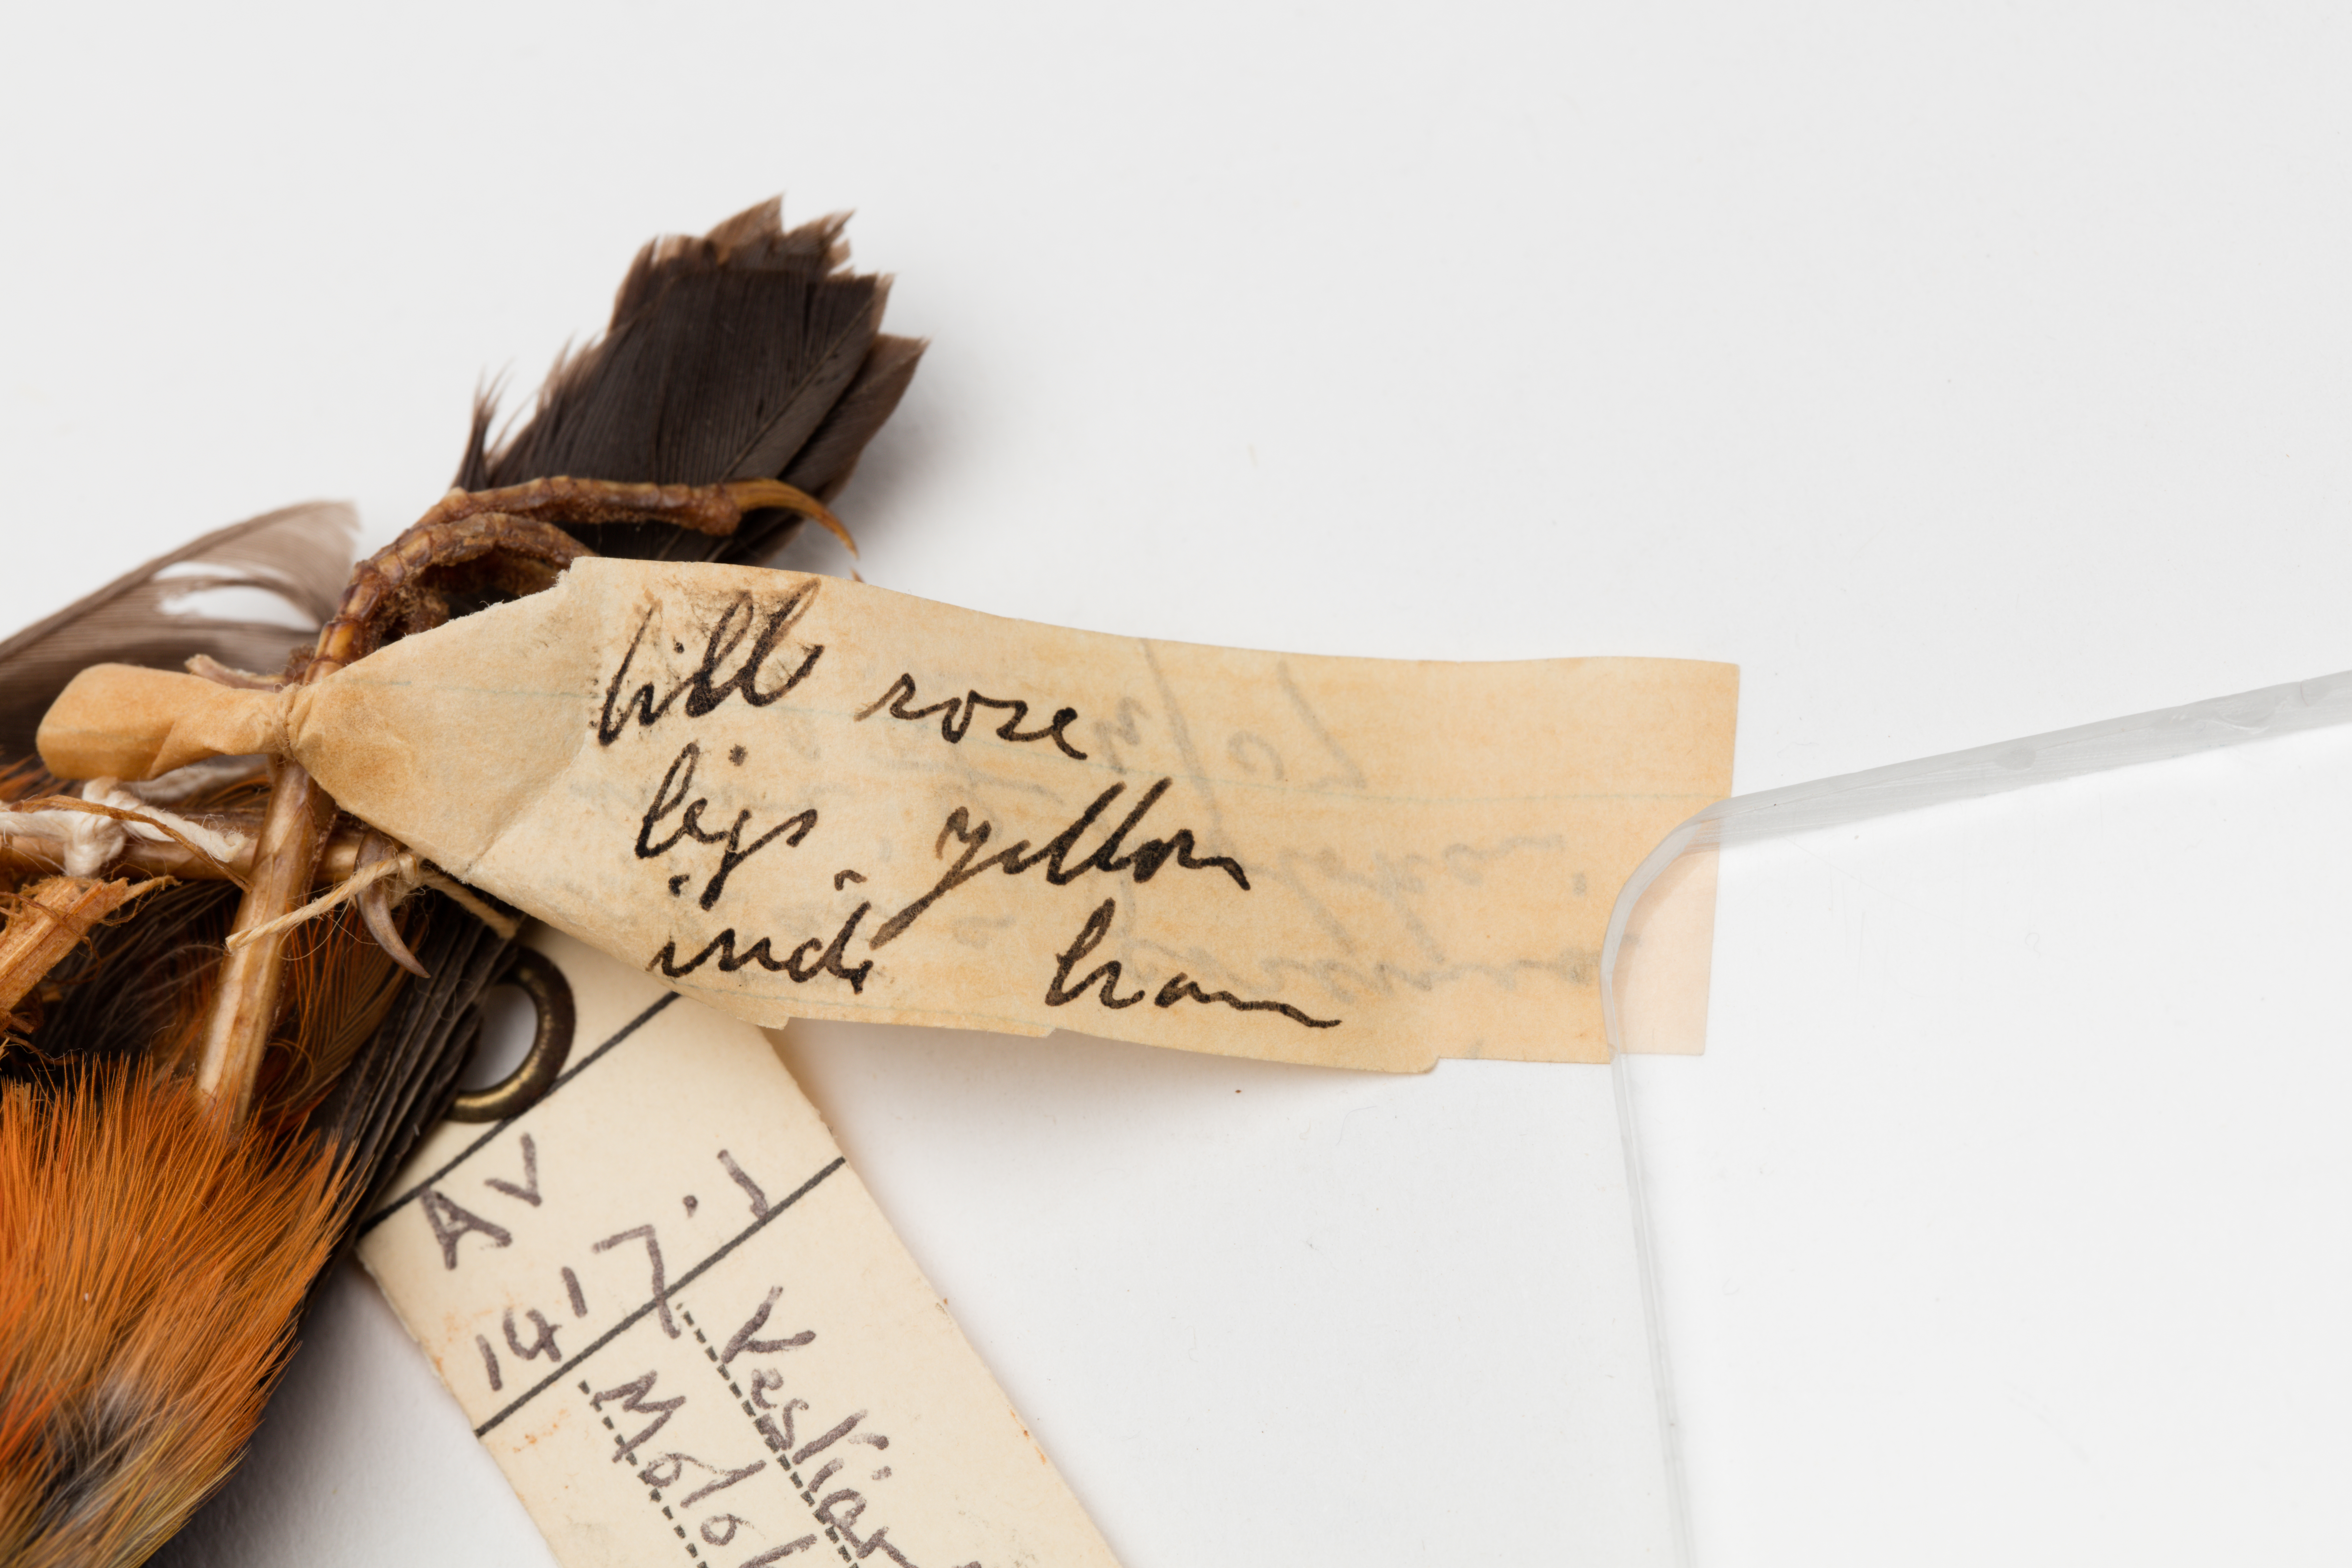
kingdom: Animalia
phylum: Chordata
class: Aves
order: Passeriformes
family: Fringillidae
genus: Vestiaria
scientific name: Vestiaria coccinea
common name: Iiwi
